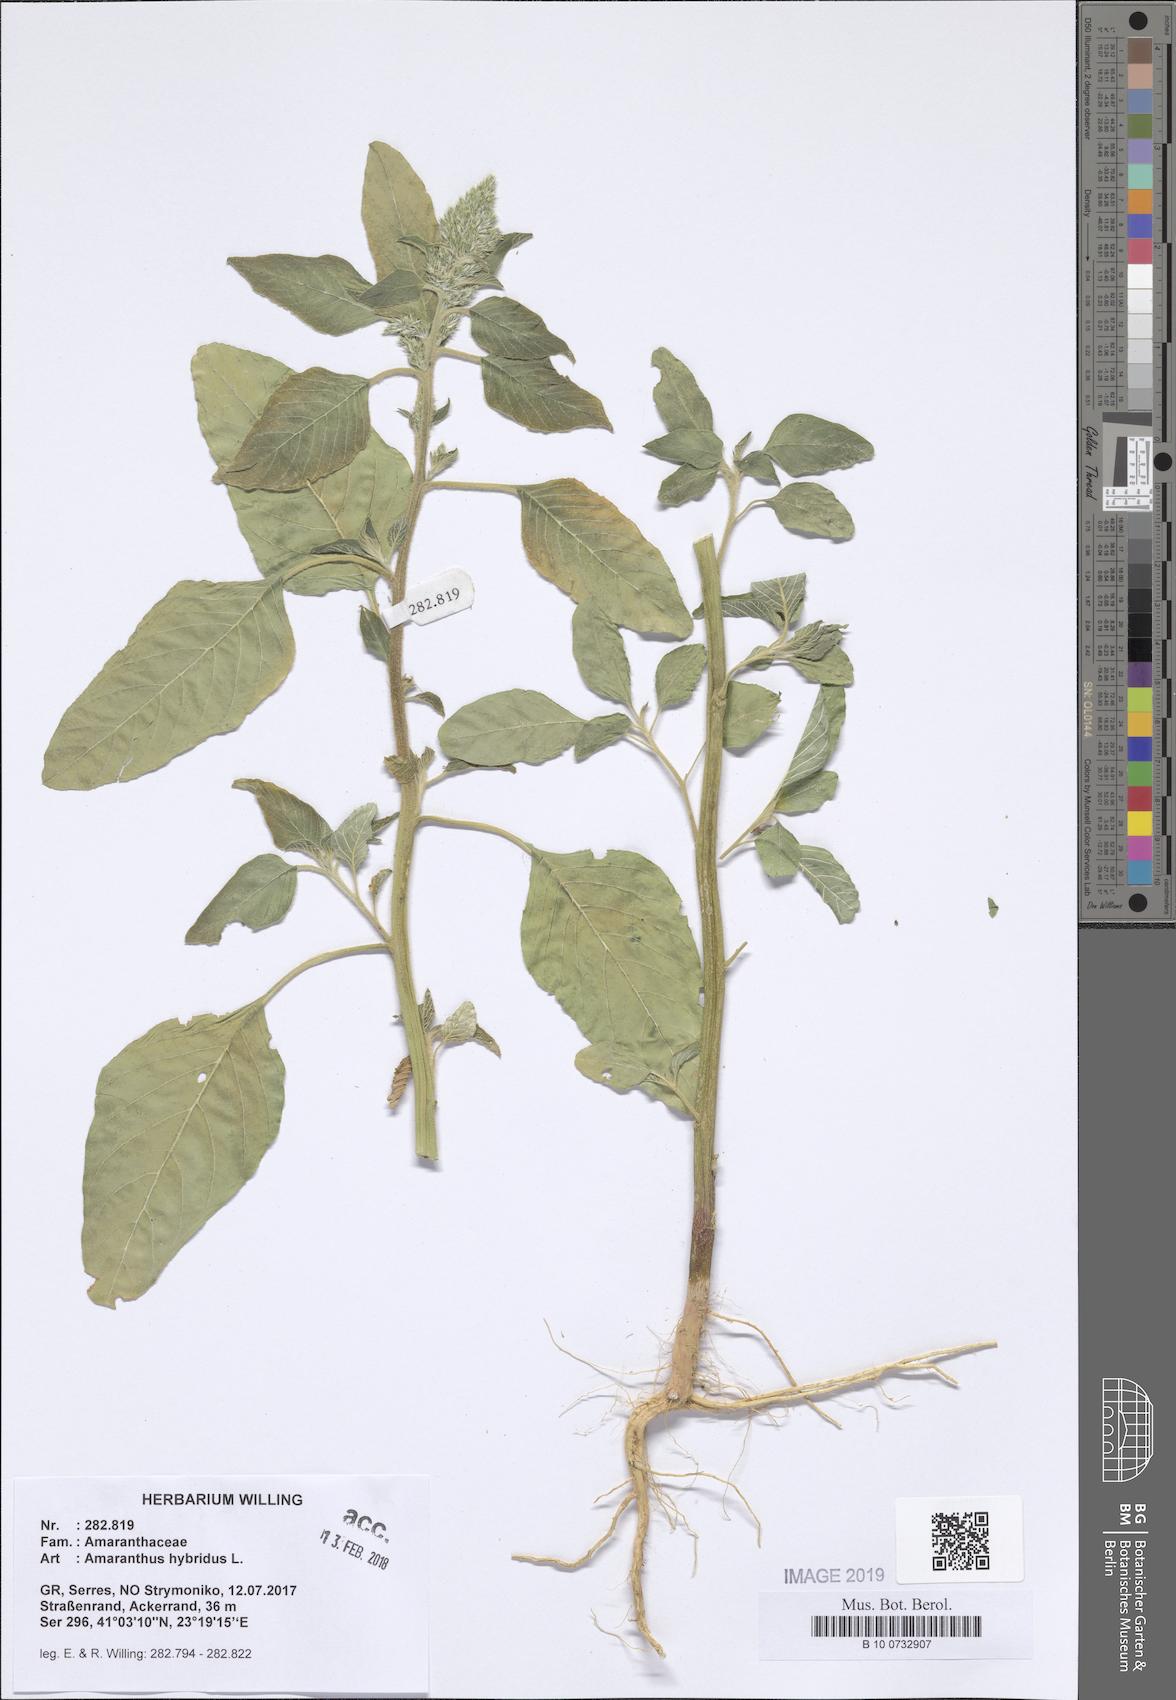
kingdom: Plantae
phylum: Tracheophyta
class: Magnoliopsida
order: Caryophyllales
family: Amaranthaceae
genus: Amaranthus
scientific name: Amaranthus hybridus
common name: Green amaranth
